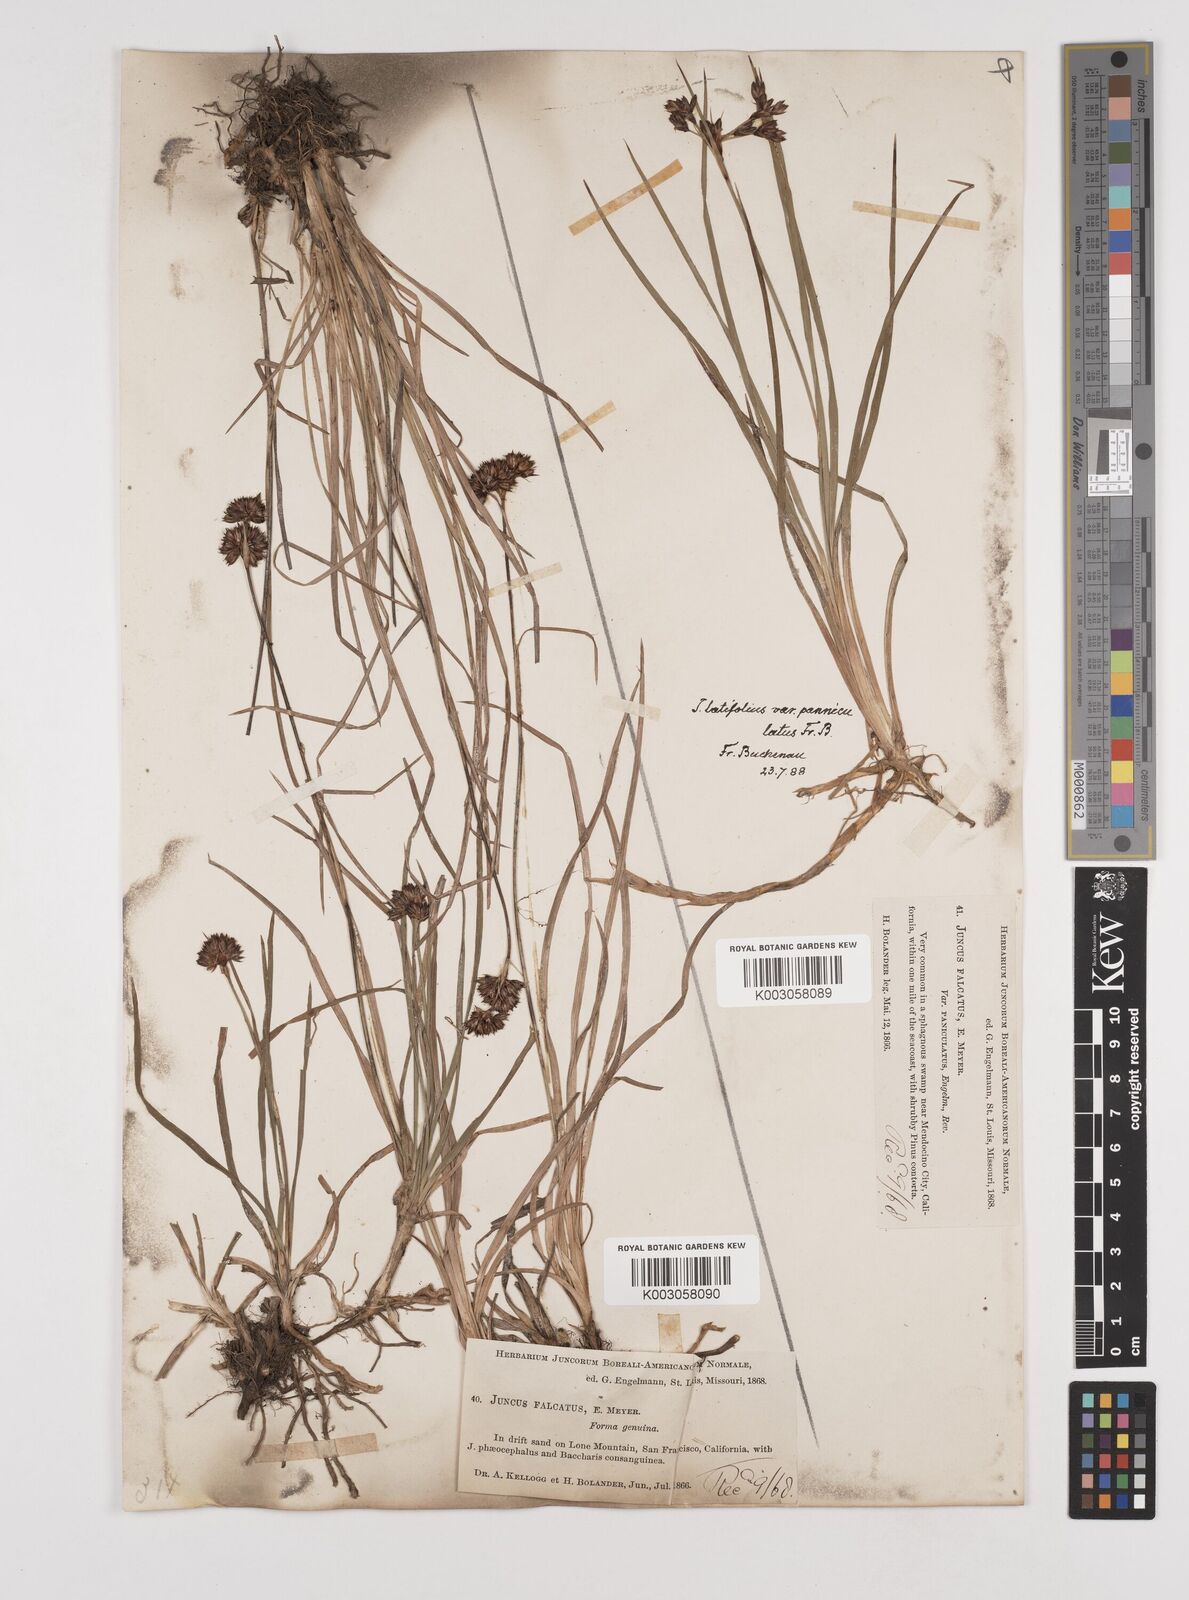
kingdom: Plantae
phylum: Tracheophyta
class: Liliopsida
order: Poales
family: Juncaceae
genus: Juncus
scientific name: Juncus falcatus
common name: Sickle-leaf rush
